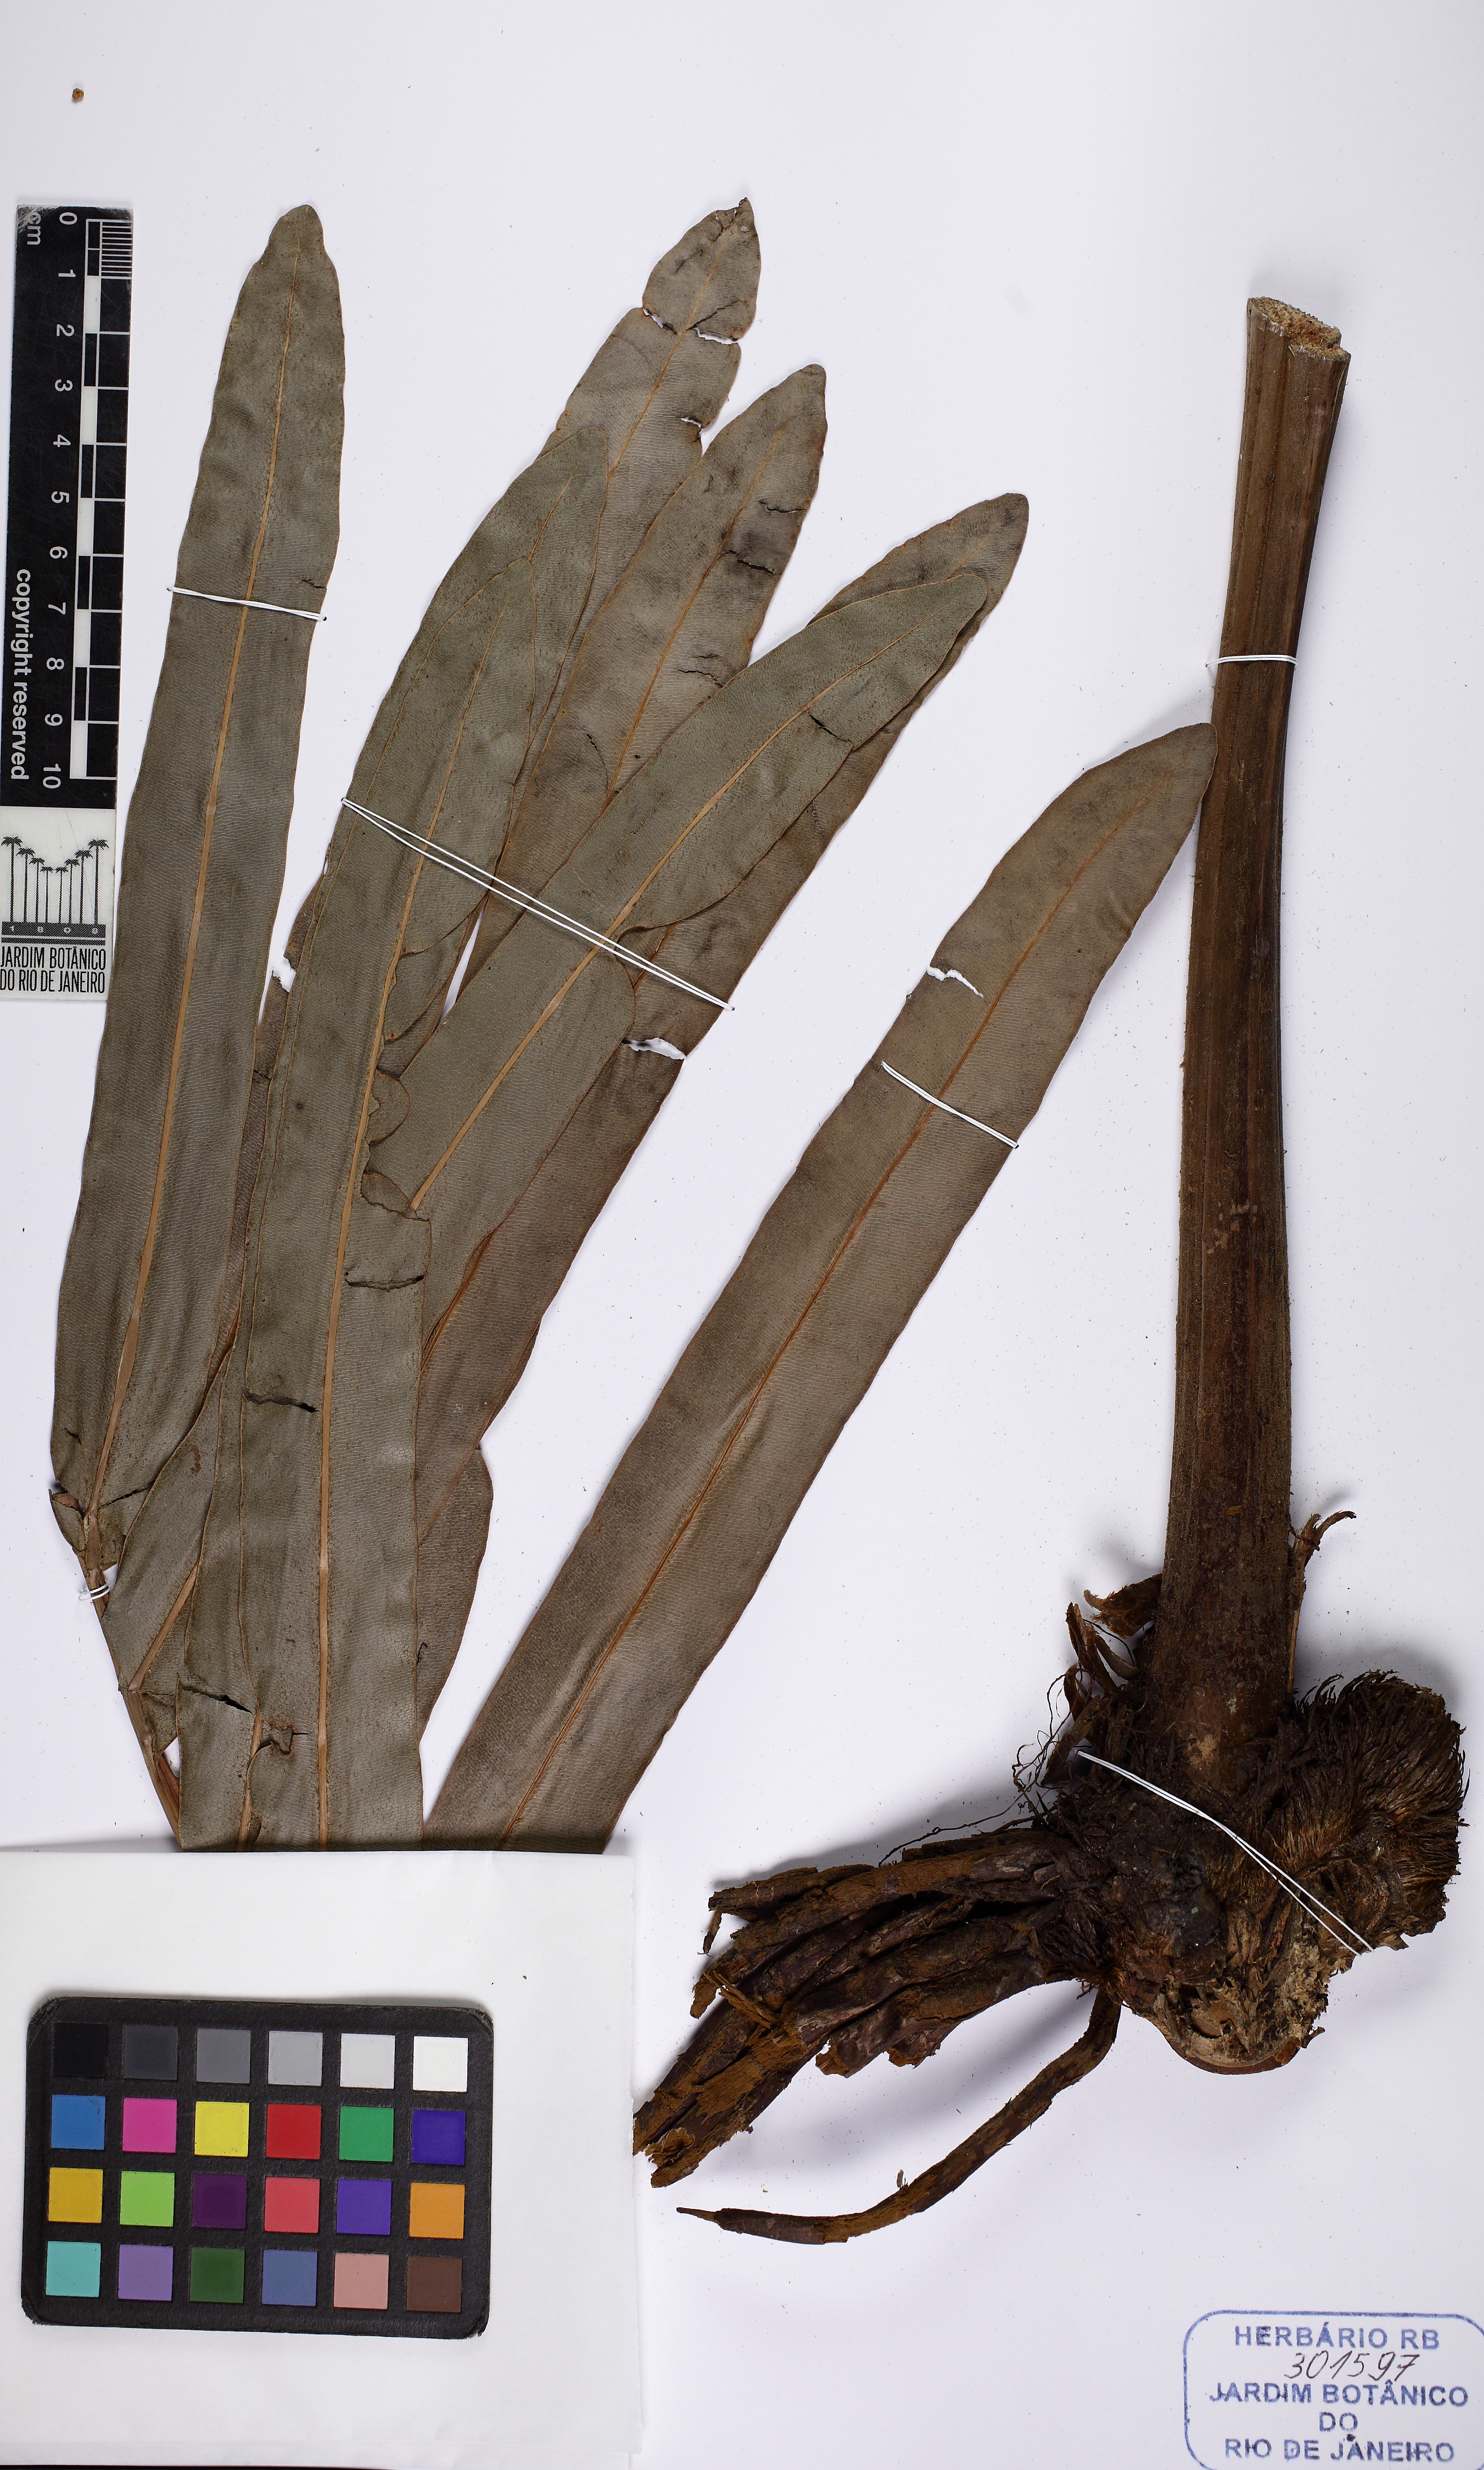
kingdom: Plantae
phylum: Tracheophyta
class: Polypodiopsida
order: Polypodiales
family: Pteridaceae
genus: Acrostichum
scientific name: Acrostichum
